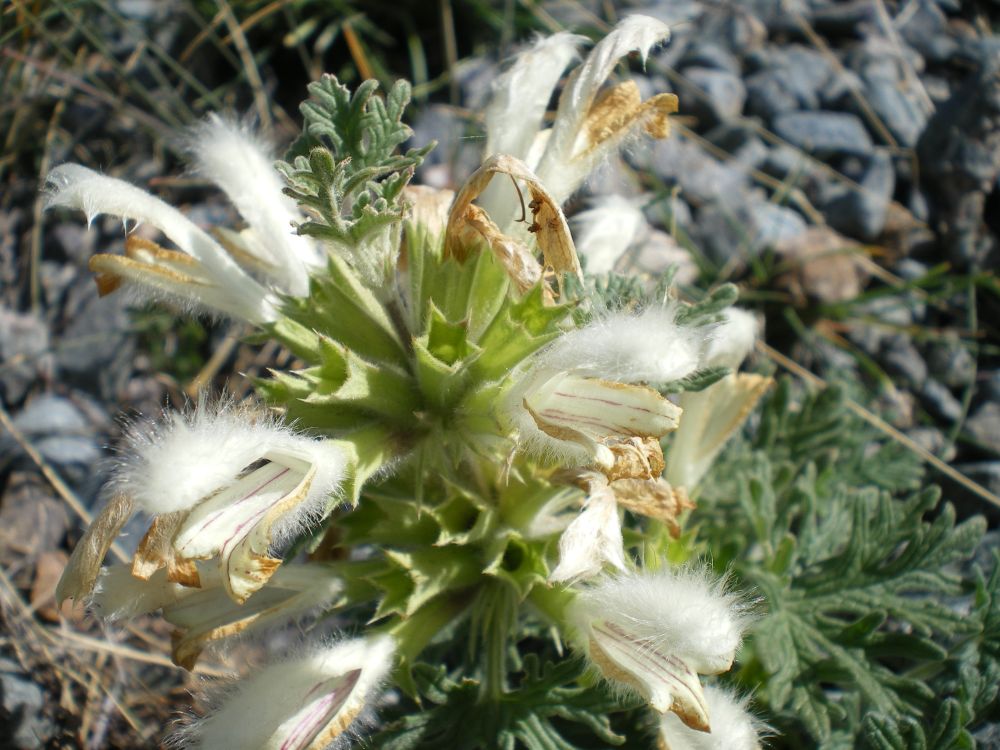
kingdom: Plantae
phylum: Tracheophyta
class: Magnoliopsida
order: Lamiales
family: Lamiaceae
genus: Panzerina
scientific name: Panzerina canescens
